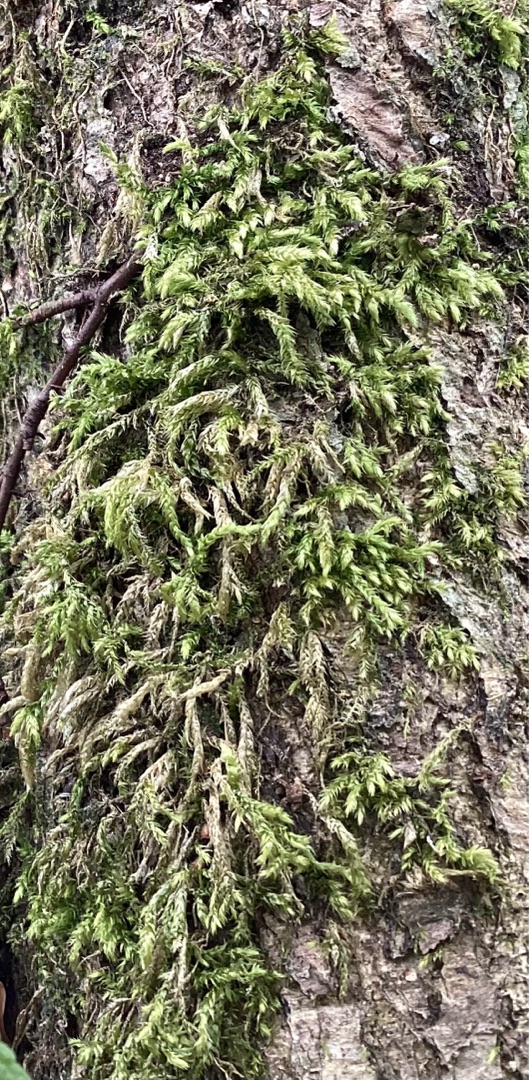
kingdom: Plantae
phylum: Bryophyta
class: Bryopsida
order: Hypnales
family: Brachytheciaceae
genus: Brachythecium
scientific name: Brachythecium rutabulum
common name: Almindelig kortkapsel
